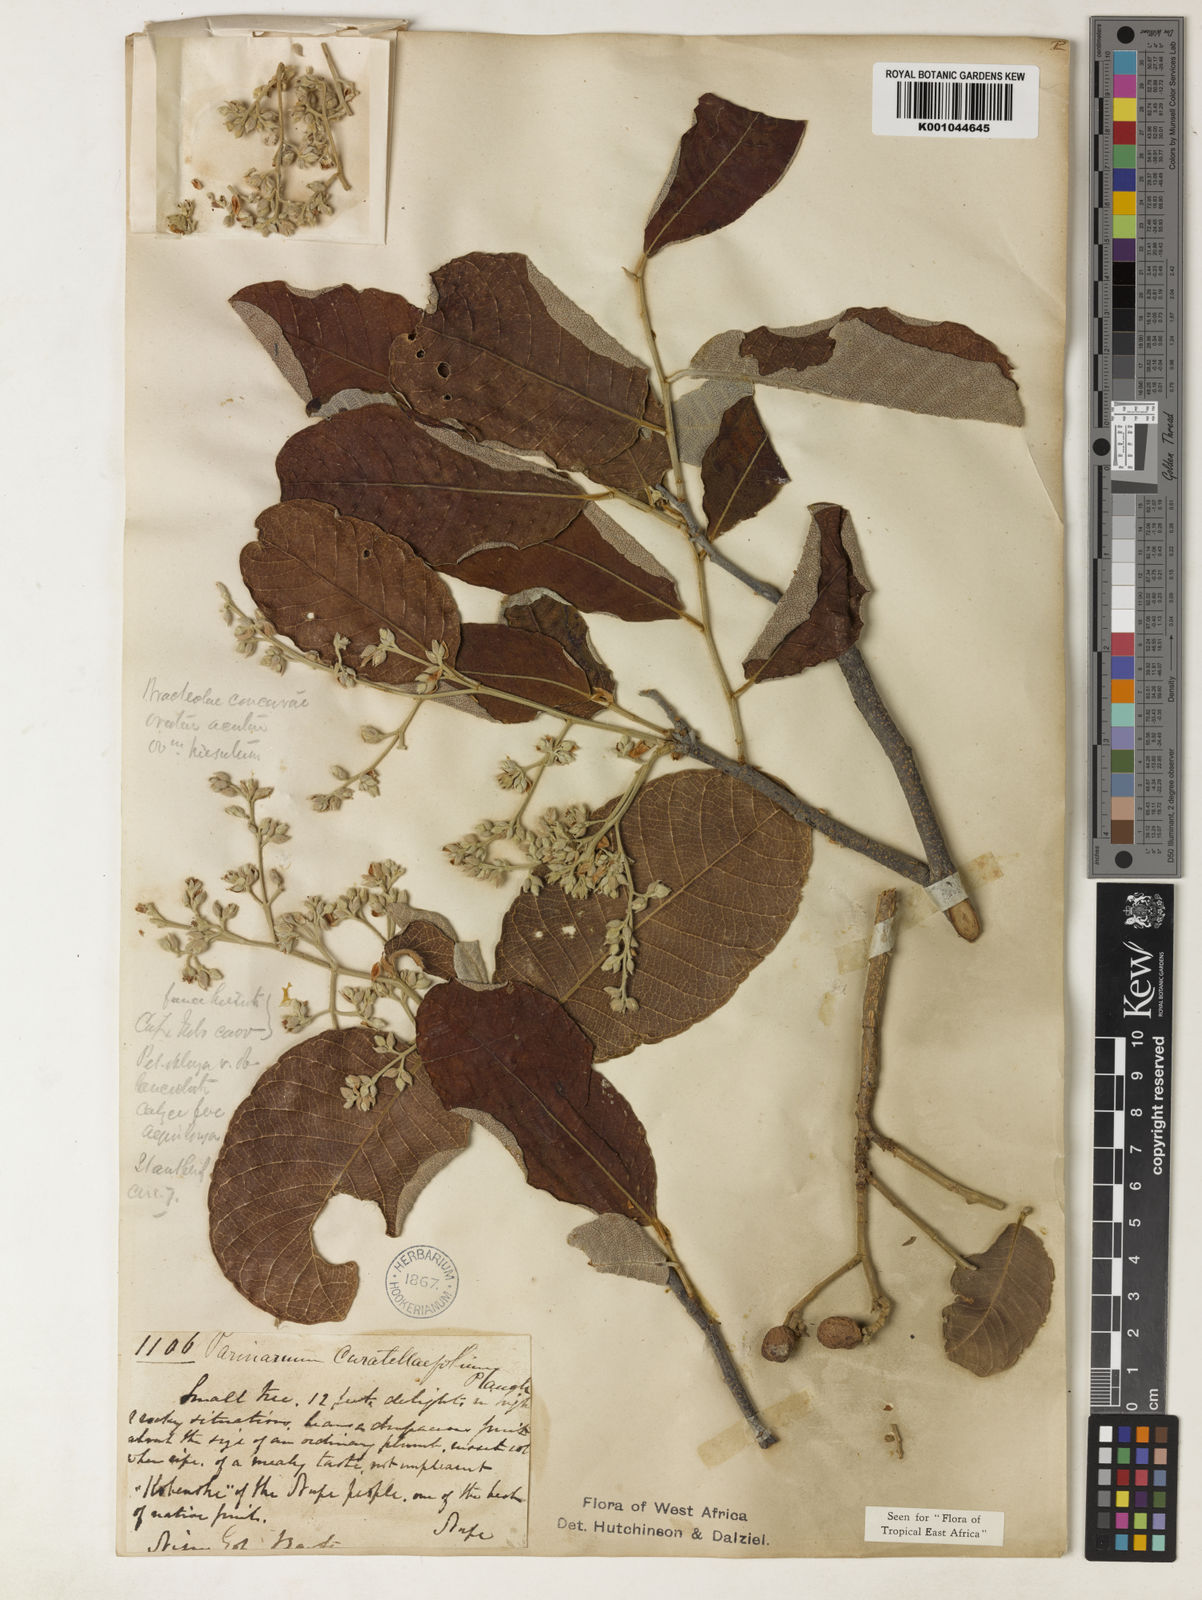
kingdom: Plantae
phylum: Tracheophyta
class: Magnoliopsida
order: Malpighiales
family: Chrysobalanaceae
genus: Parinari
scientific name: Parinari curatellifolia
